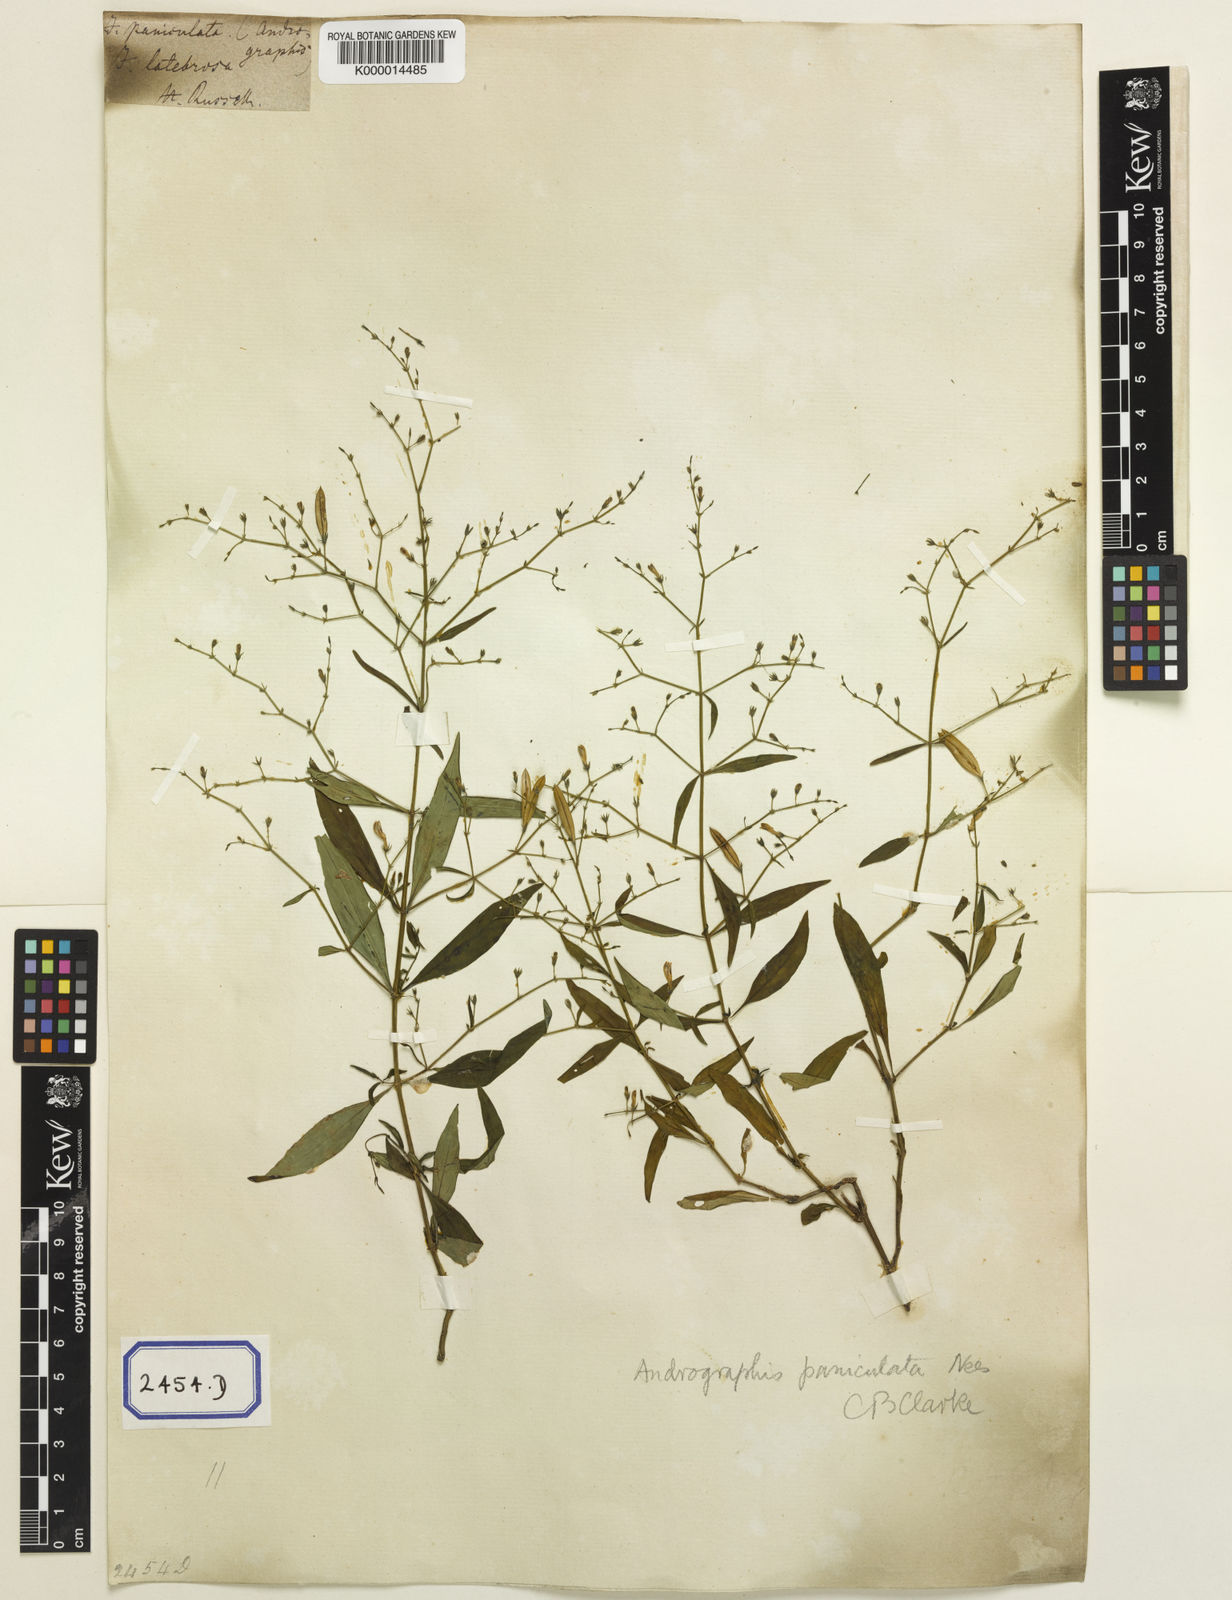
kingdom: Plantae
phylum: Tracheophyta
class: Magnoliopsida
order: Lamiales
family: Acanthaceae
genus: Justicia
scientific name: Justicia
